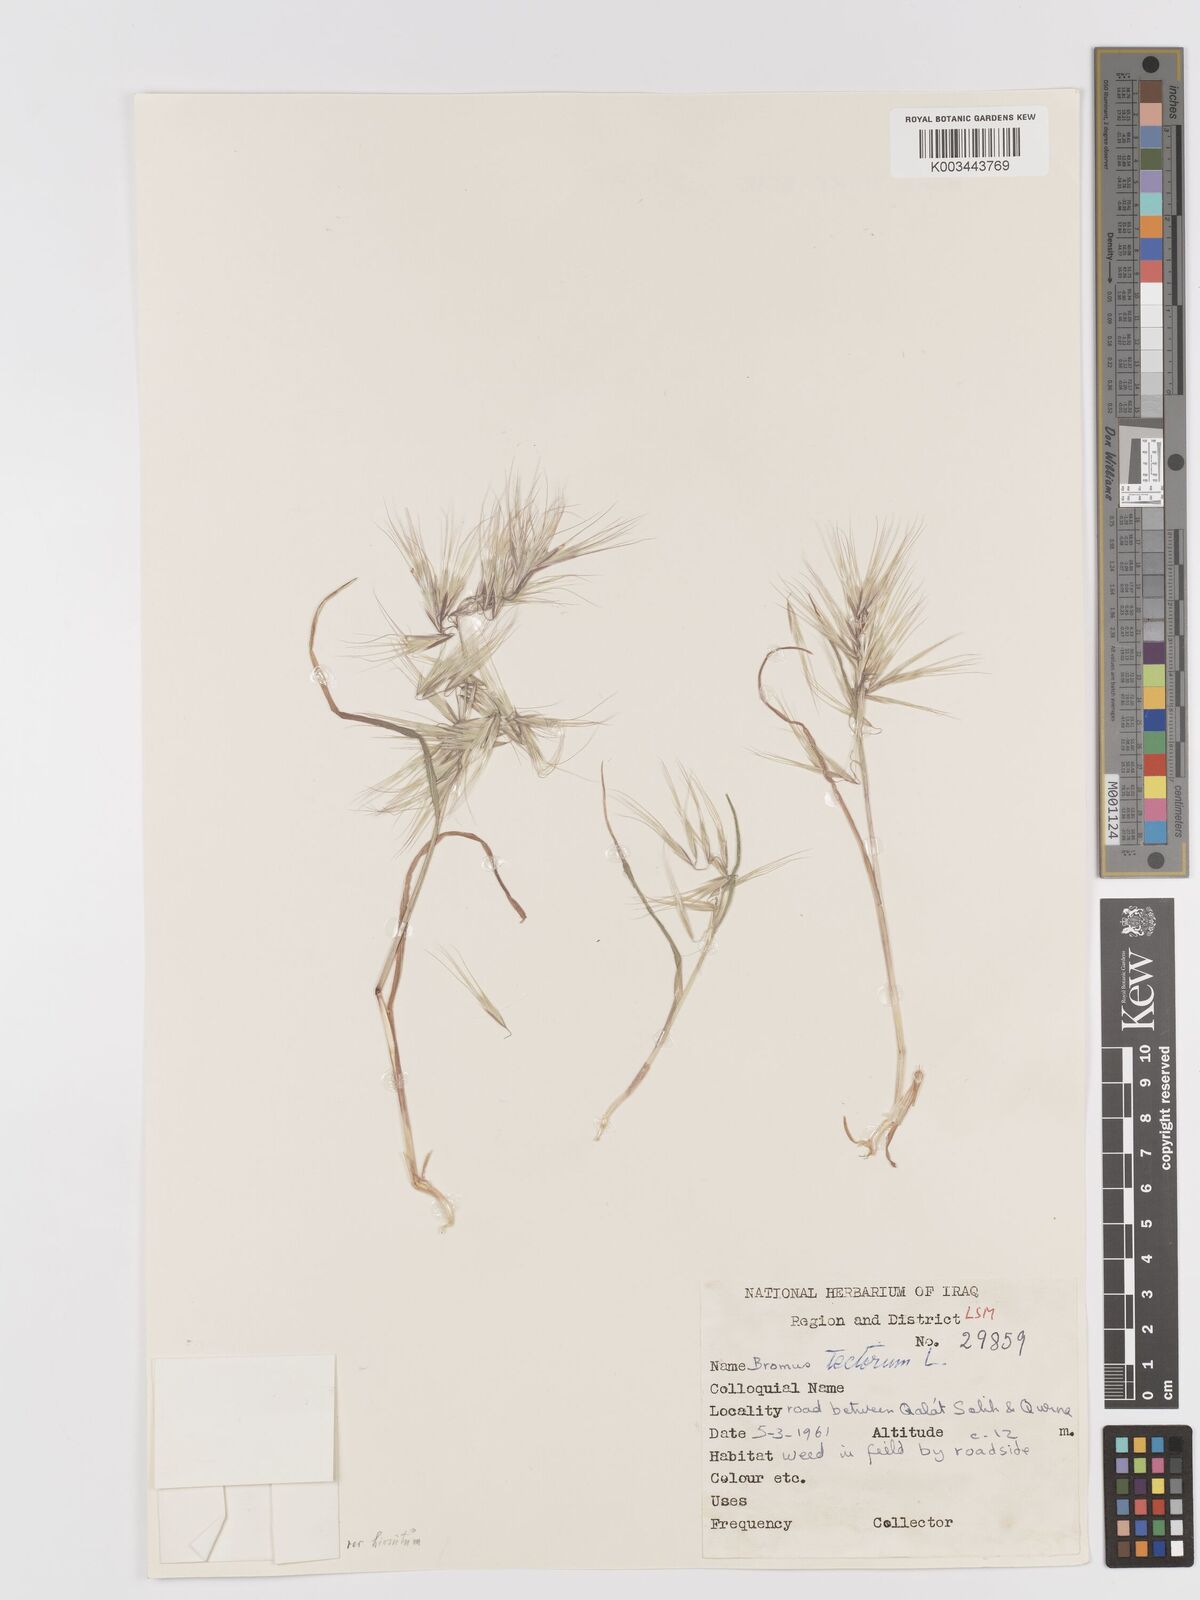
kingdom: Plantae
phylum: Tracheophyta
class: Liliopsida
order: Poales
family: Poaceae
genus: Bromus
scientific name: Bromus tectorum
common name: Cheatgrass
